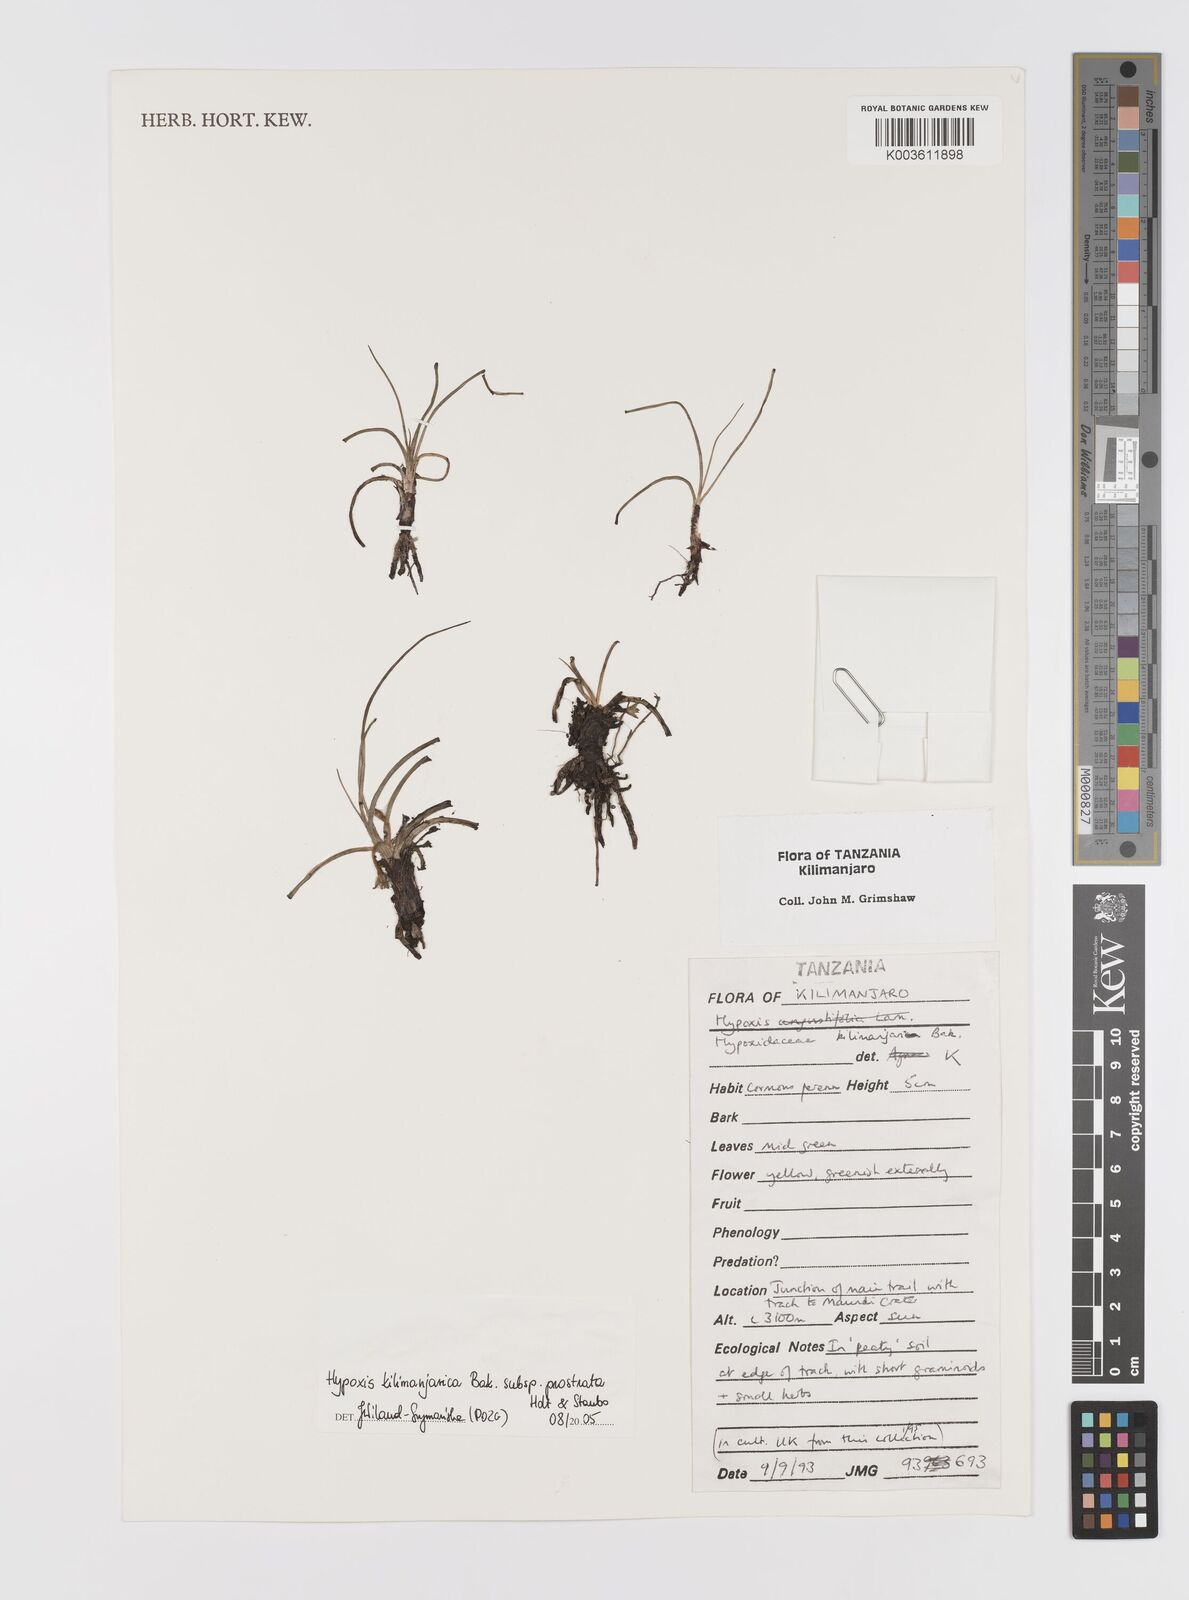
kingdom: Plantae
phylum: Tracheophyta
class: Liliopsida
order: Asparagales
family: Hypoxidaceae
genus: Hypoxis
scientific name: Hypoxis kilimanjarica
